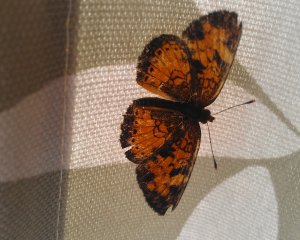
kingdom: Animalia
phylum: Arthropoda
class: Insecta
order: Lepidoptera
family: Nymphalidae
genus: Phyciodes
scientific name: Phyciodes tharos
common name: Northern Crescent
